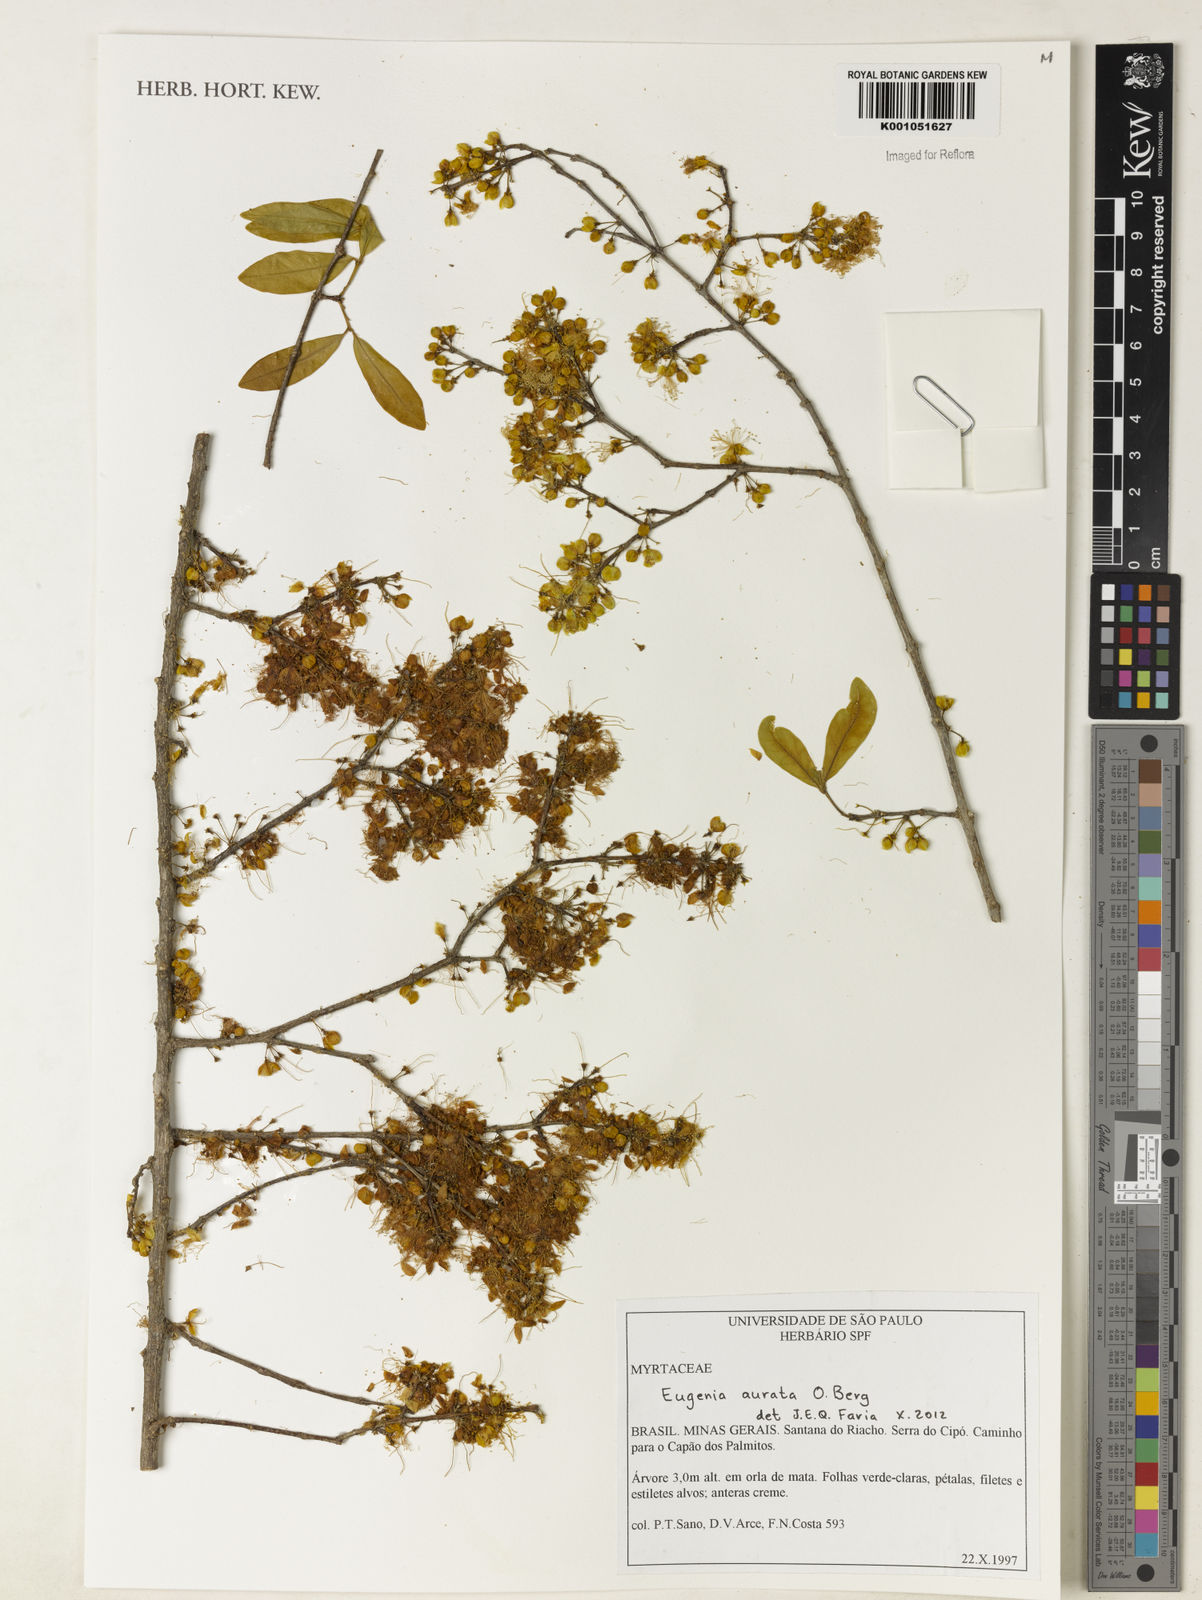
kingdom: Plantae
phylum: Tracheophyta
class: Magnoliopsida
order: Myrtales
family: Myrtaceae
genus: Eugenia
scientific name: Eugenia aurata
